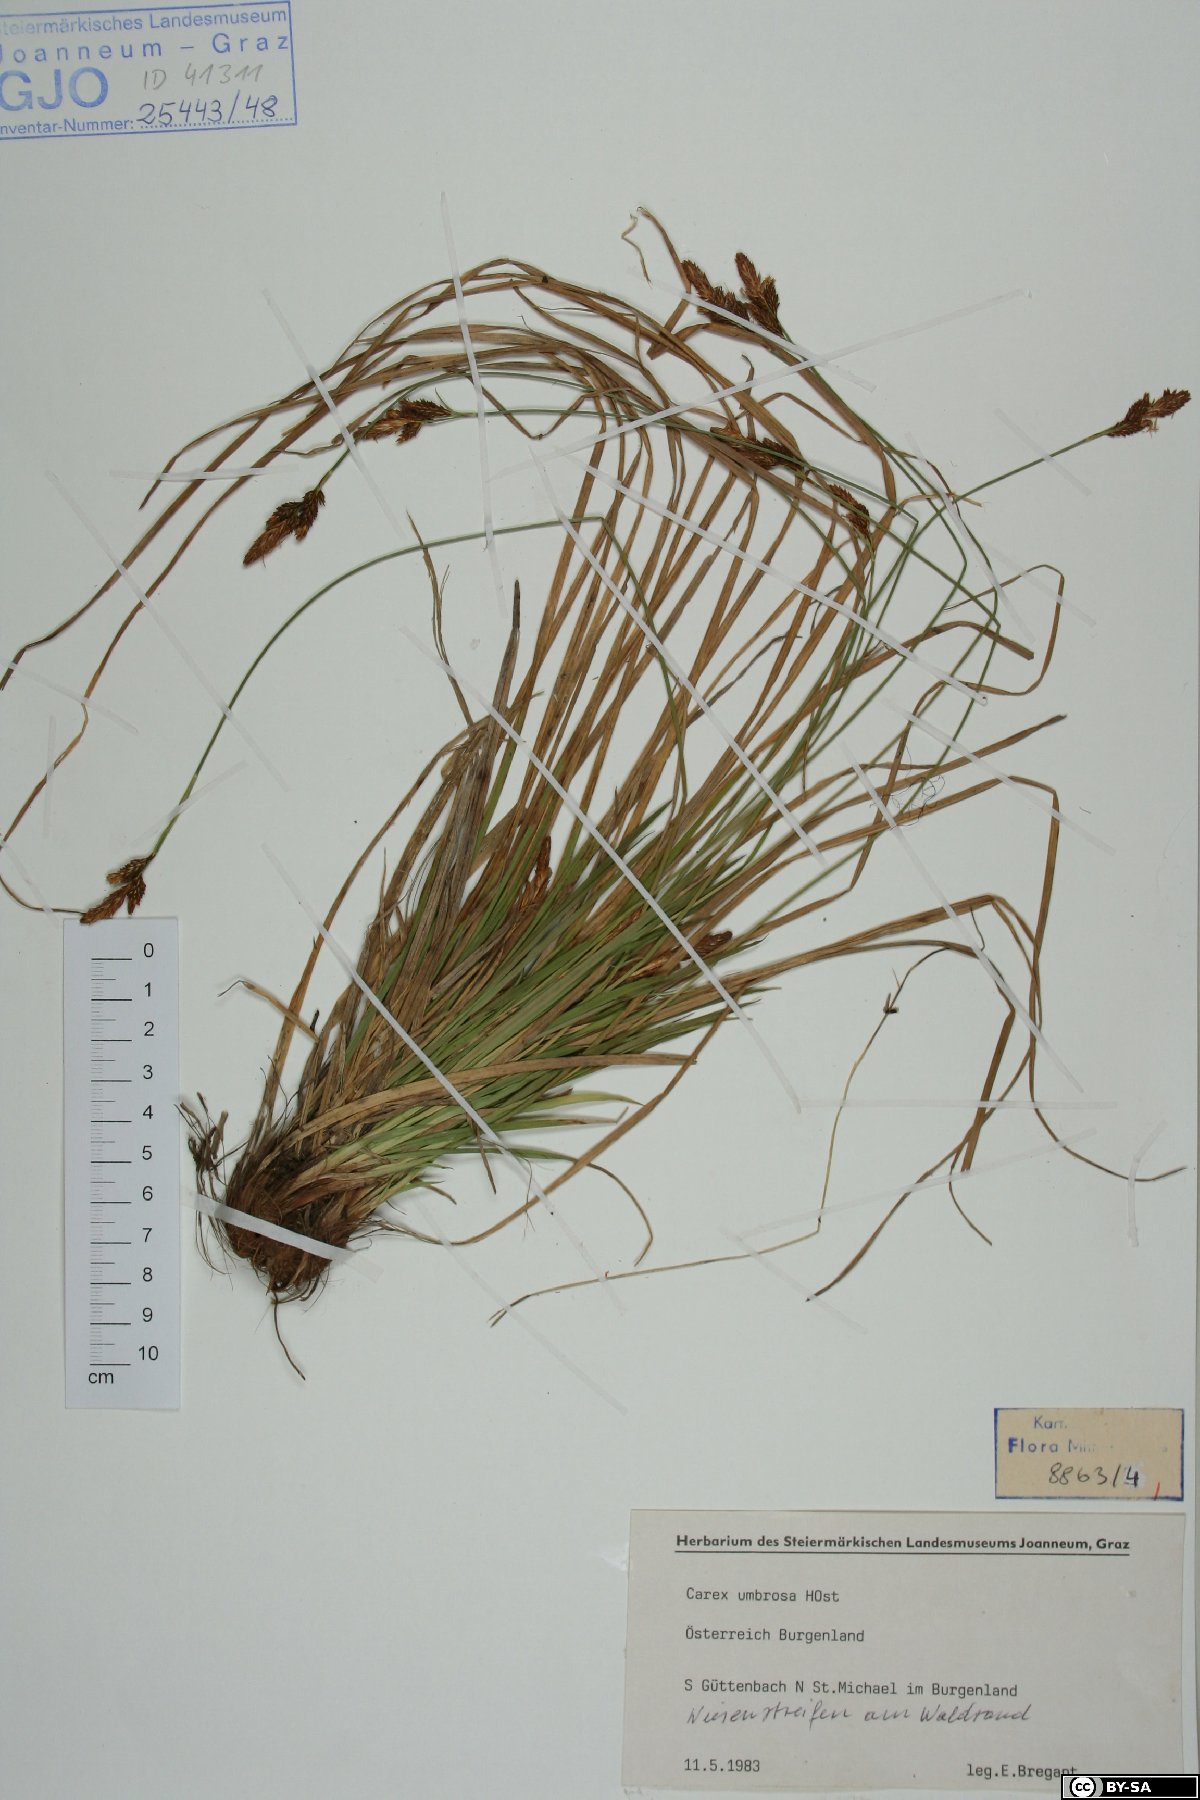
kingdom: Plantae
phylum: Tracheophyta
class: Liliopsida
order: Poales
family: Cyperaceae
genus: Carex
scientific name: Carex umbrosa
